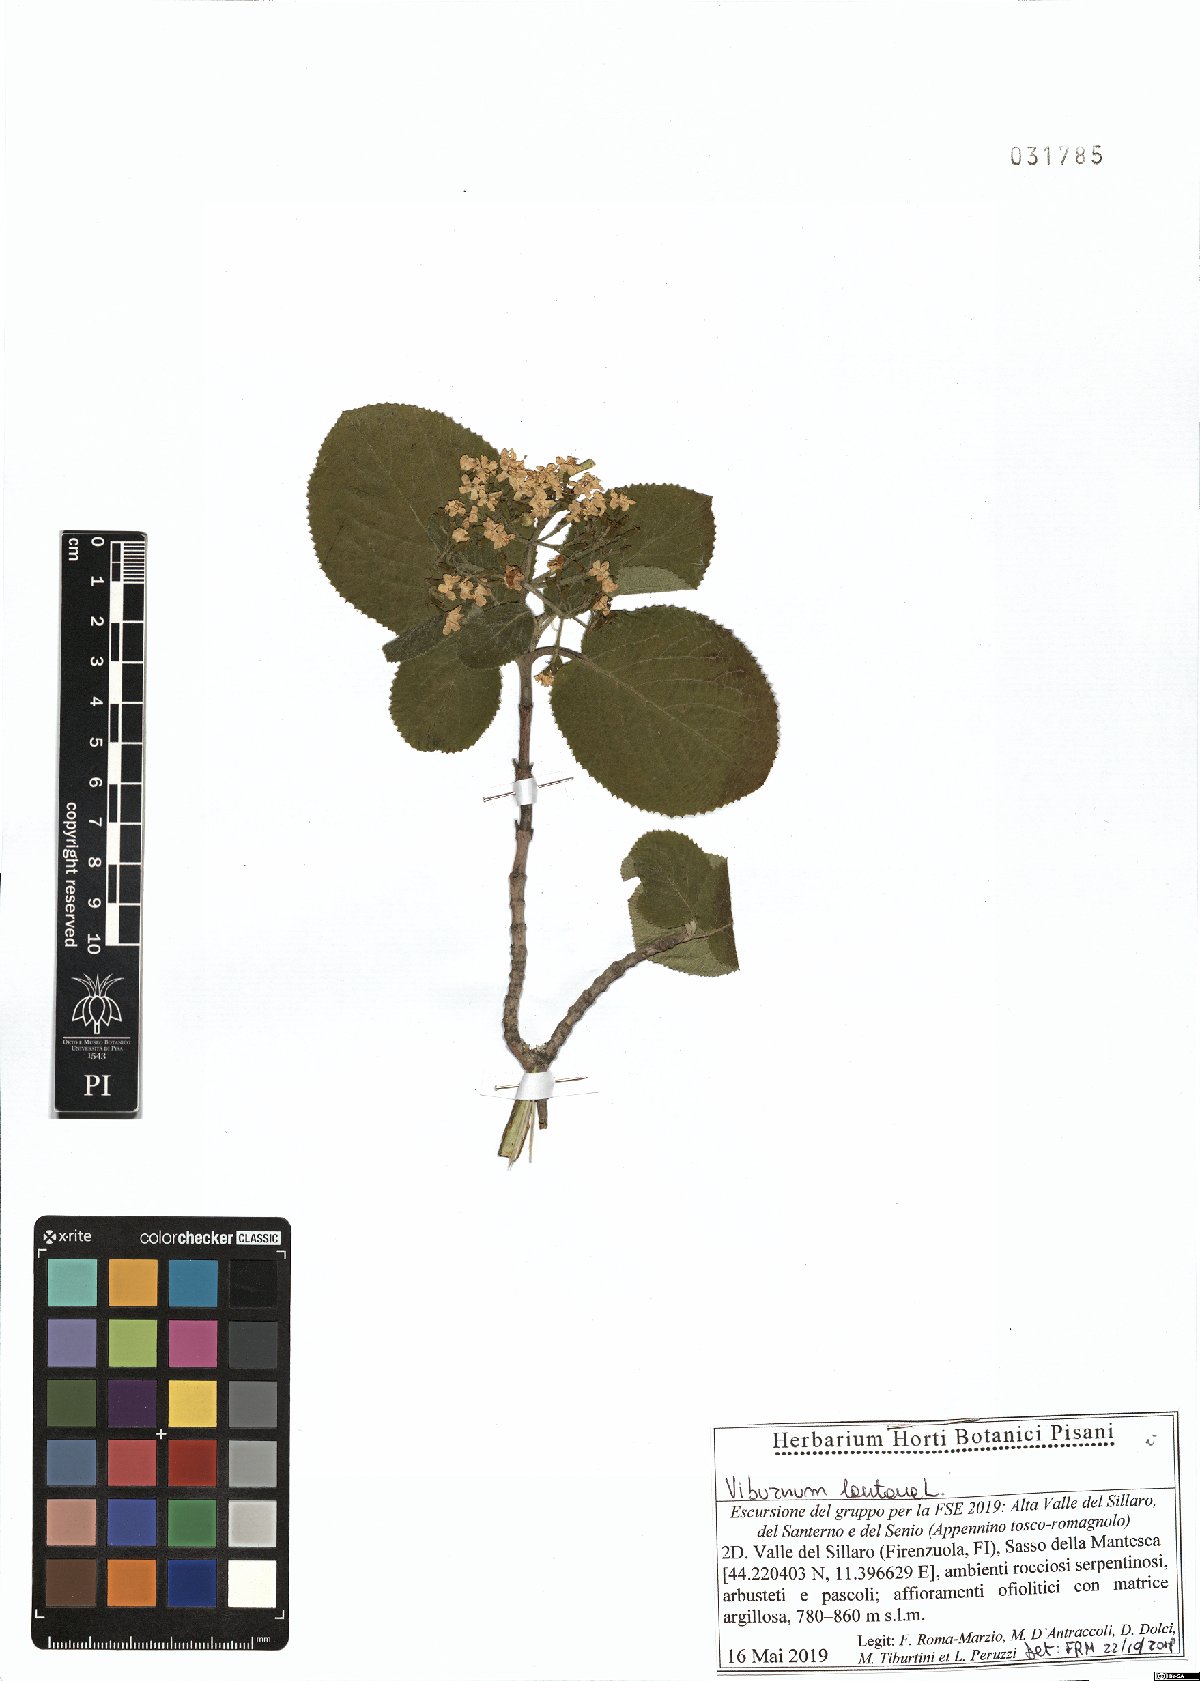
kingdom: Plantae
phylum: Tracheophyta
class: Magnoliopsida
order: Dipsacales
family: Viburnaceae
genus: Viburnum
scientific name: Viburnum lantana
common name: Wayfaring tree
